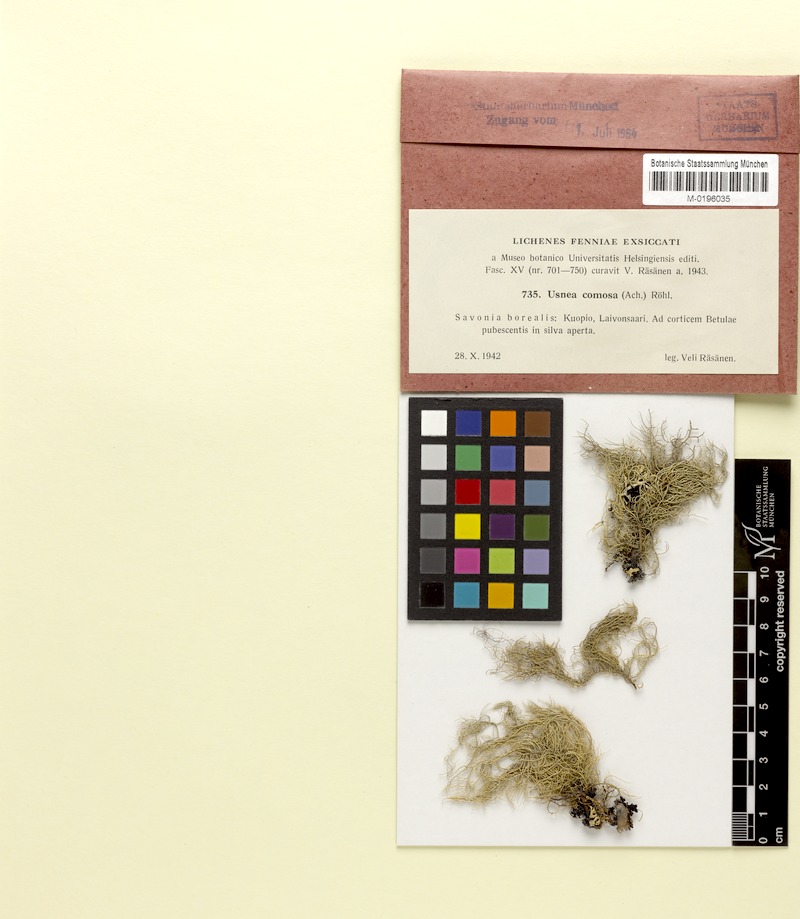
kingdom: Fungi
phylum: Ascomycota
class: Lecanoromycetes
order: Lecanorales
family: Parmeliaceae
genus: Usnea
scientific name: Usnea subfloridana
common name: Boreal beard lichen
